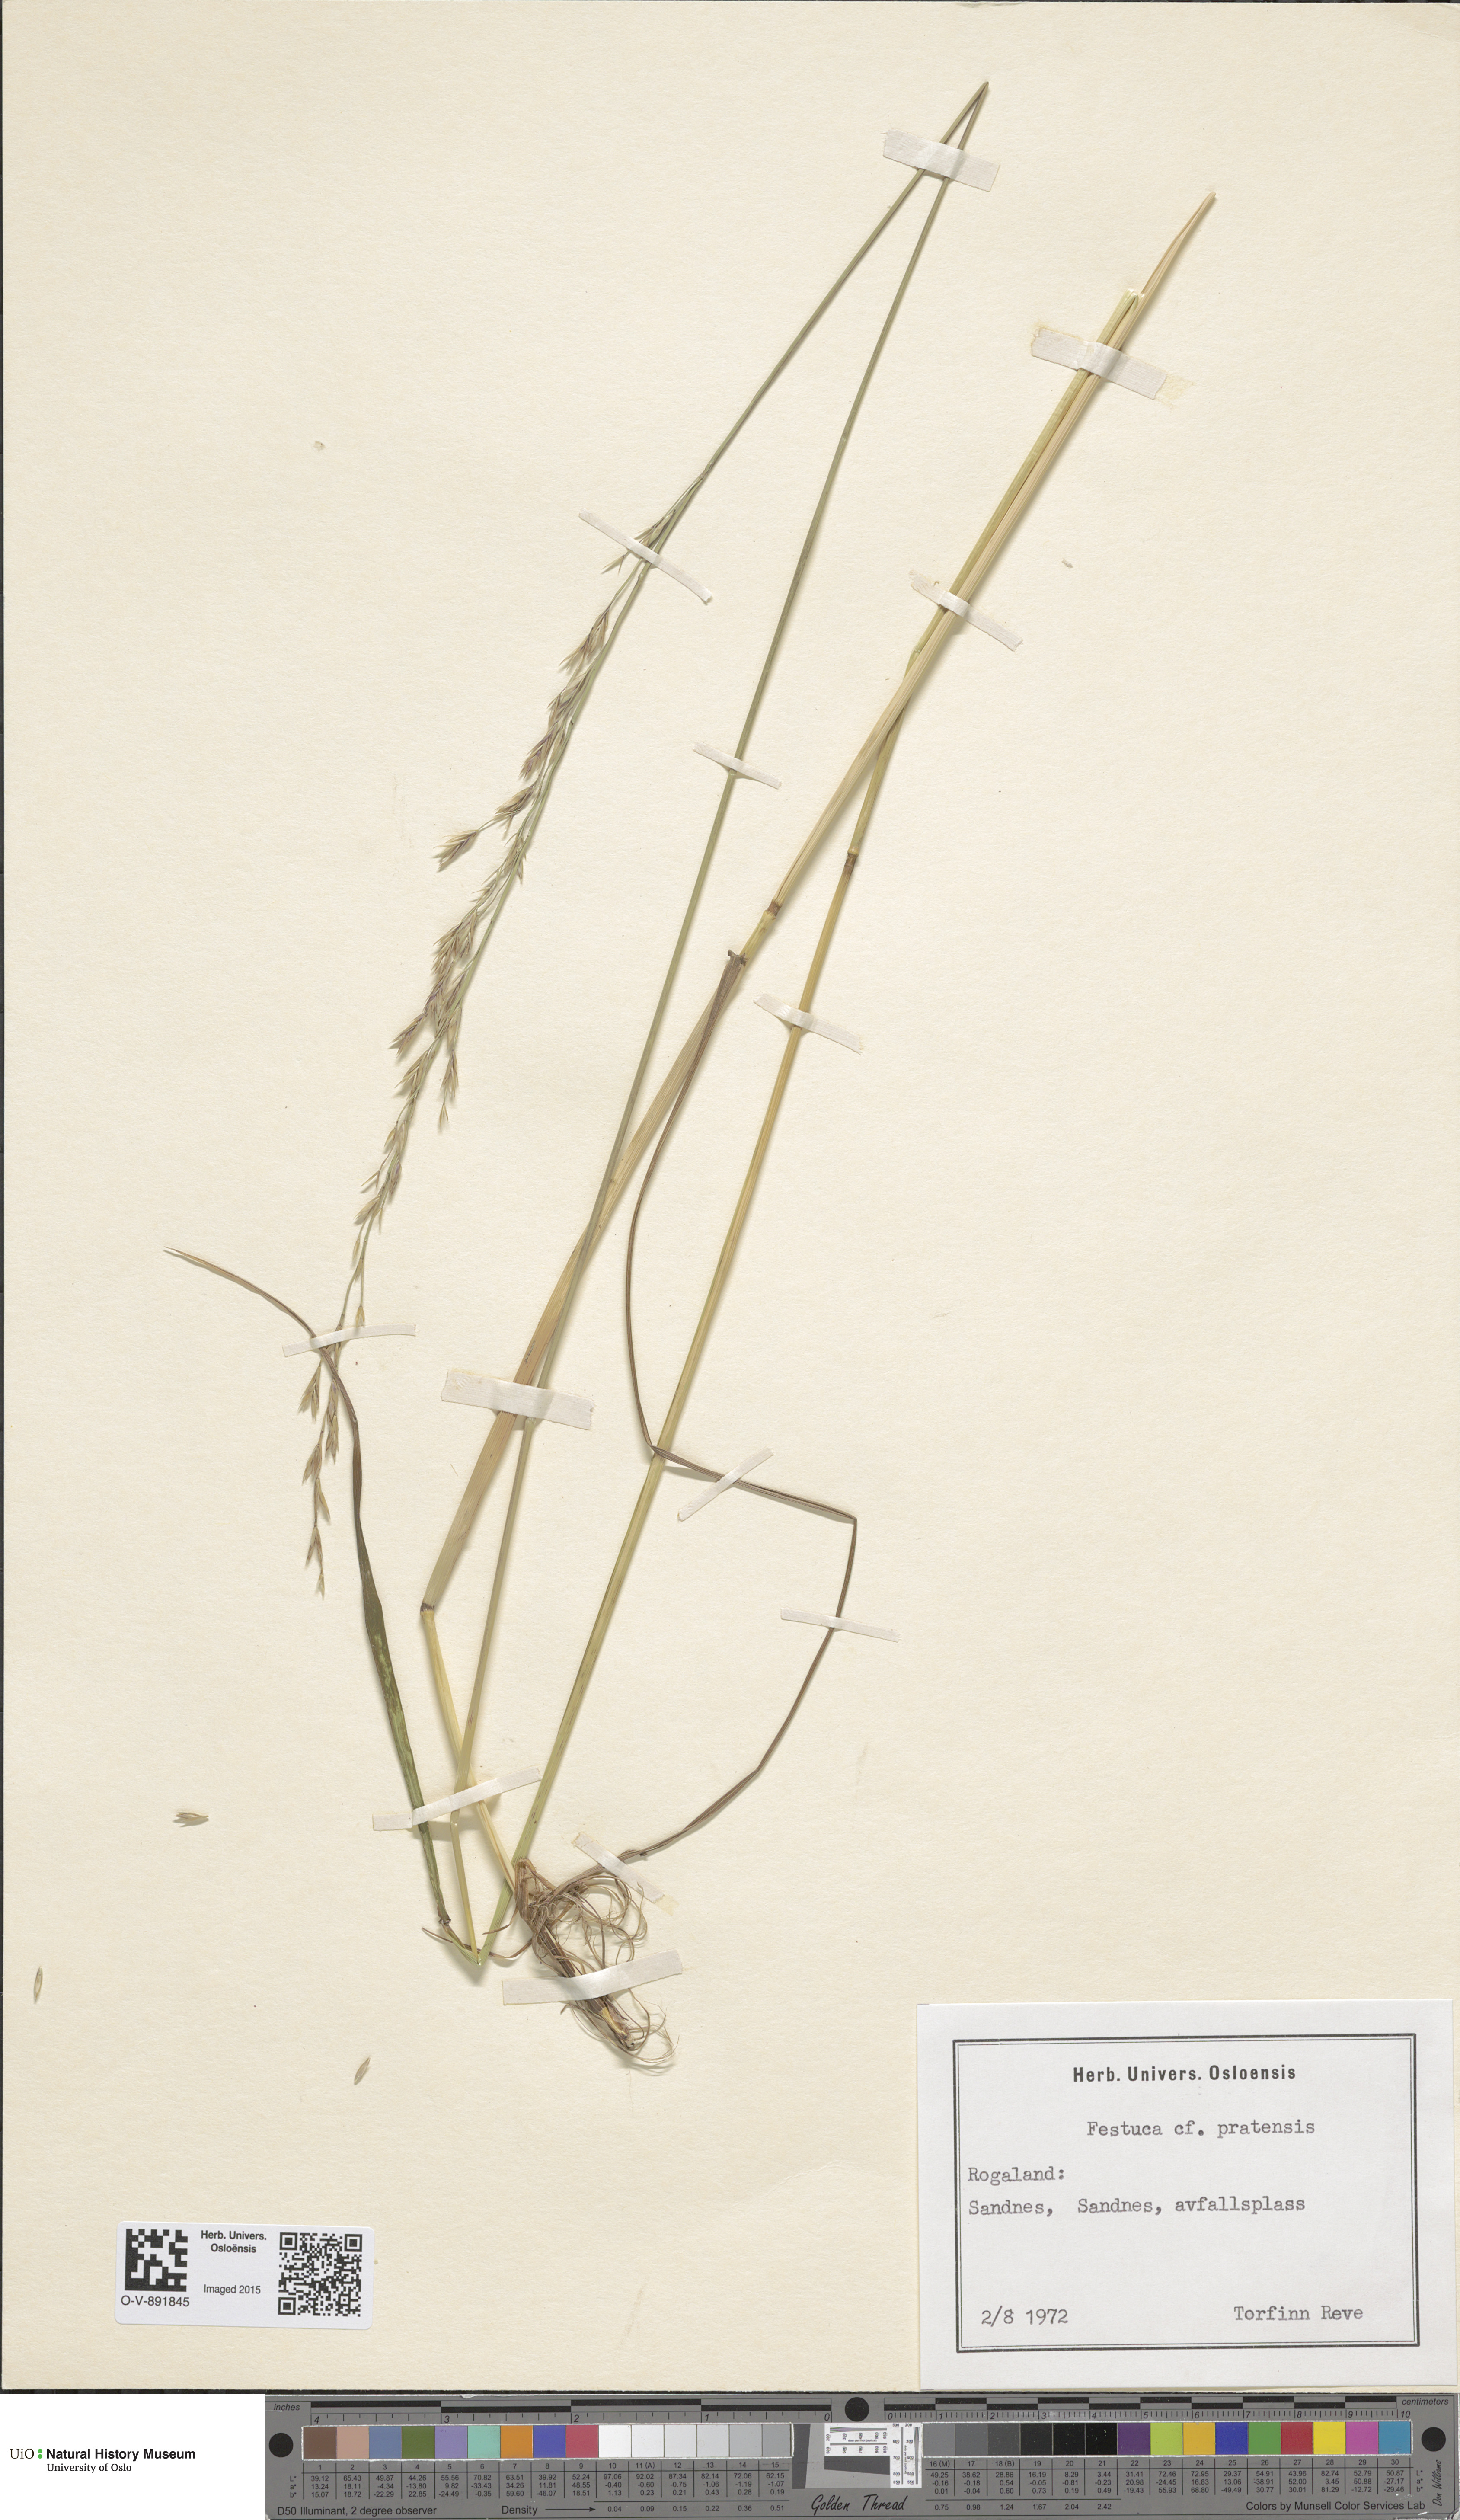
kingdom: Plantae
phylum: Tracheophyta
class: Liliopsida
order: Poales
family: Poaceae
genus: Lolium
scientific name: Lolium pratense
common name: Dover grass
